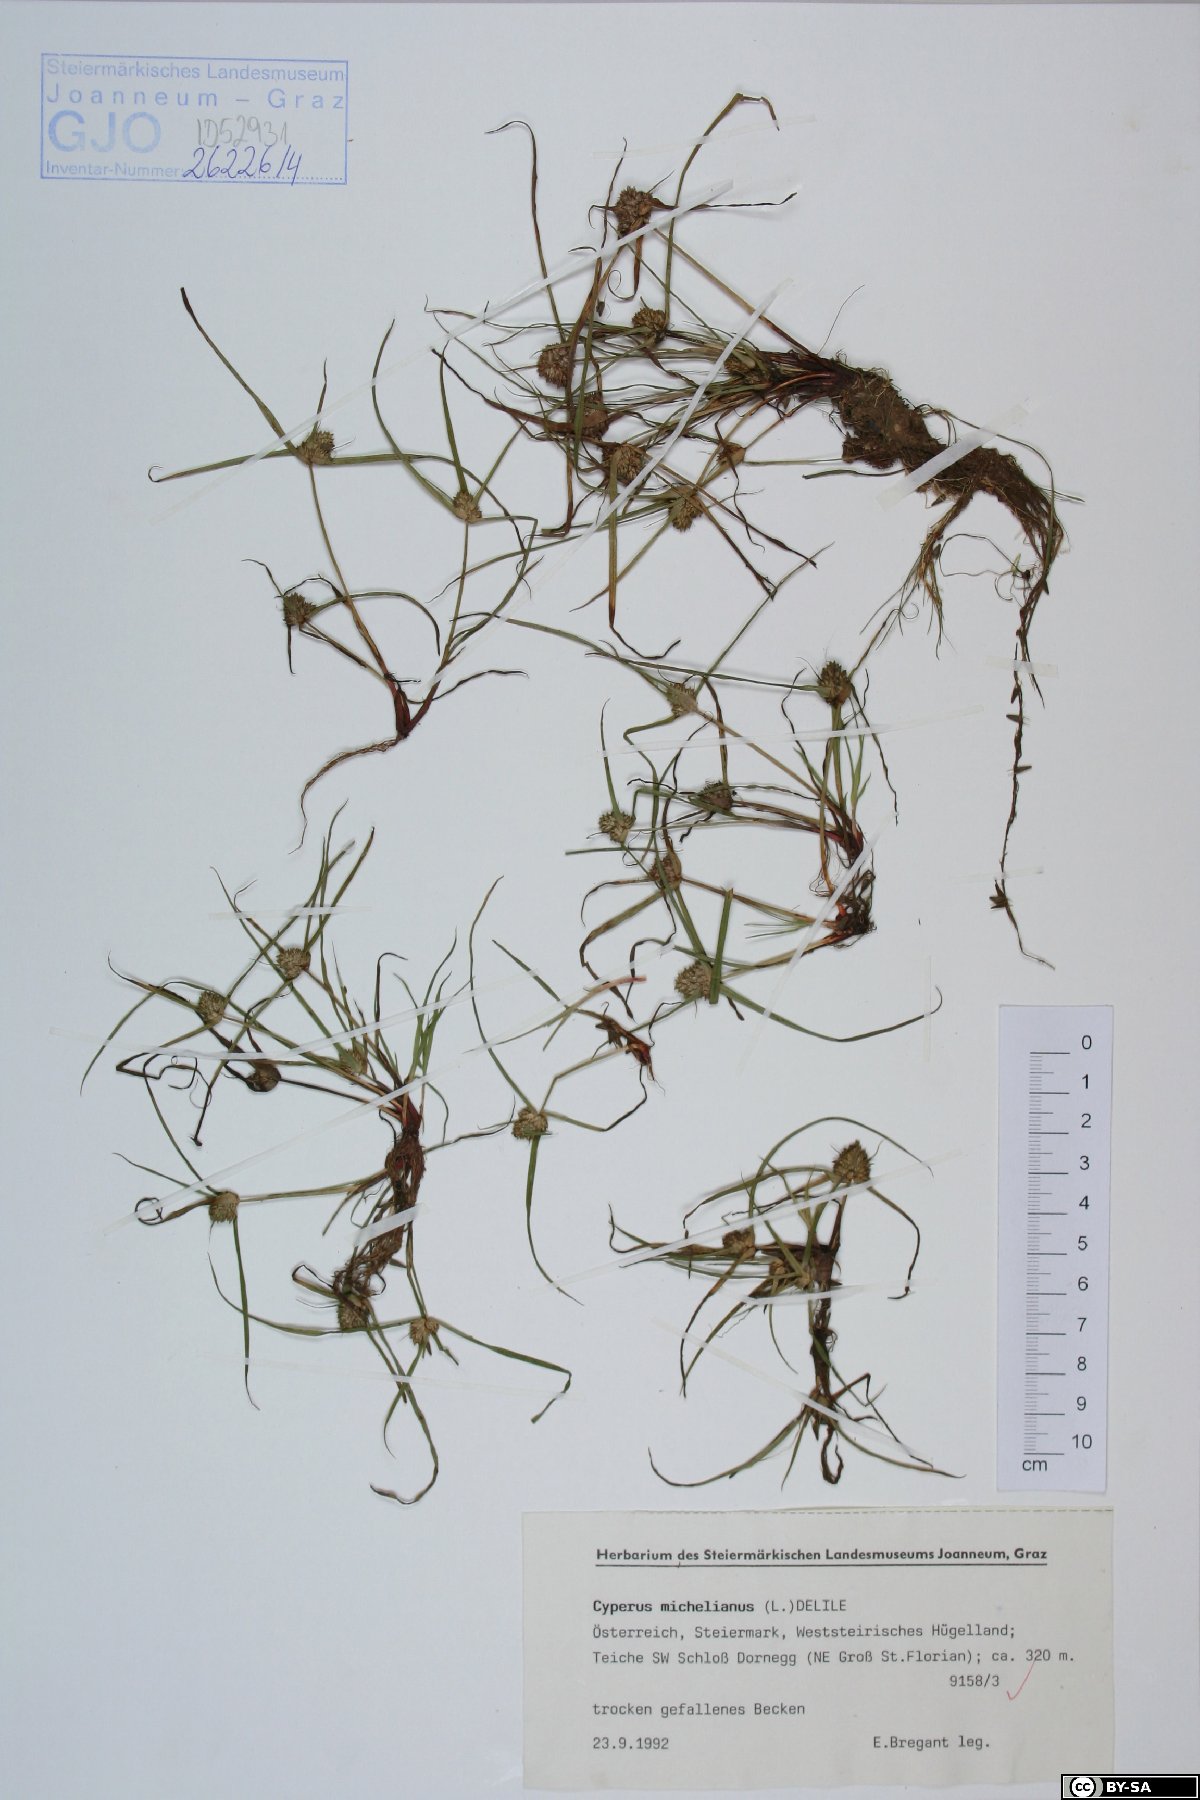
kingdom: Plantae
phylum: Tracheophyta
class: Liliopsida
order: Poales
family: Cyperaceae
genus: Cyperus
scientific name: Cyperus michelianus
